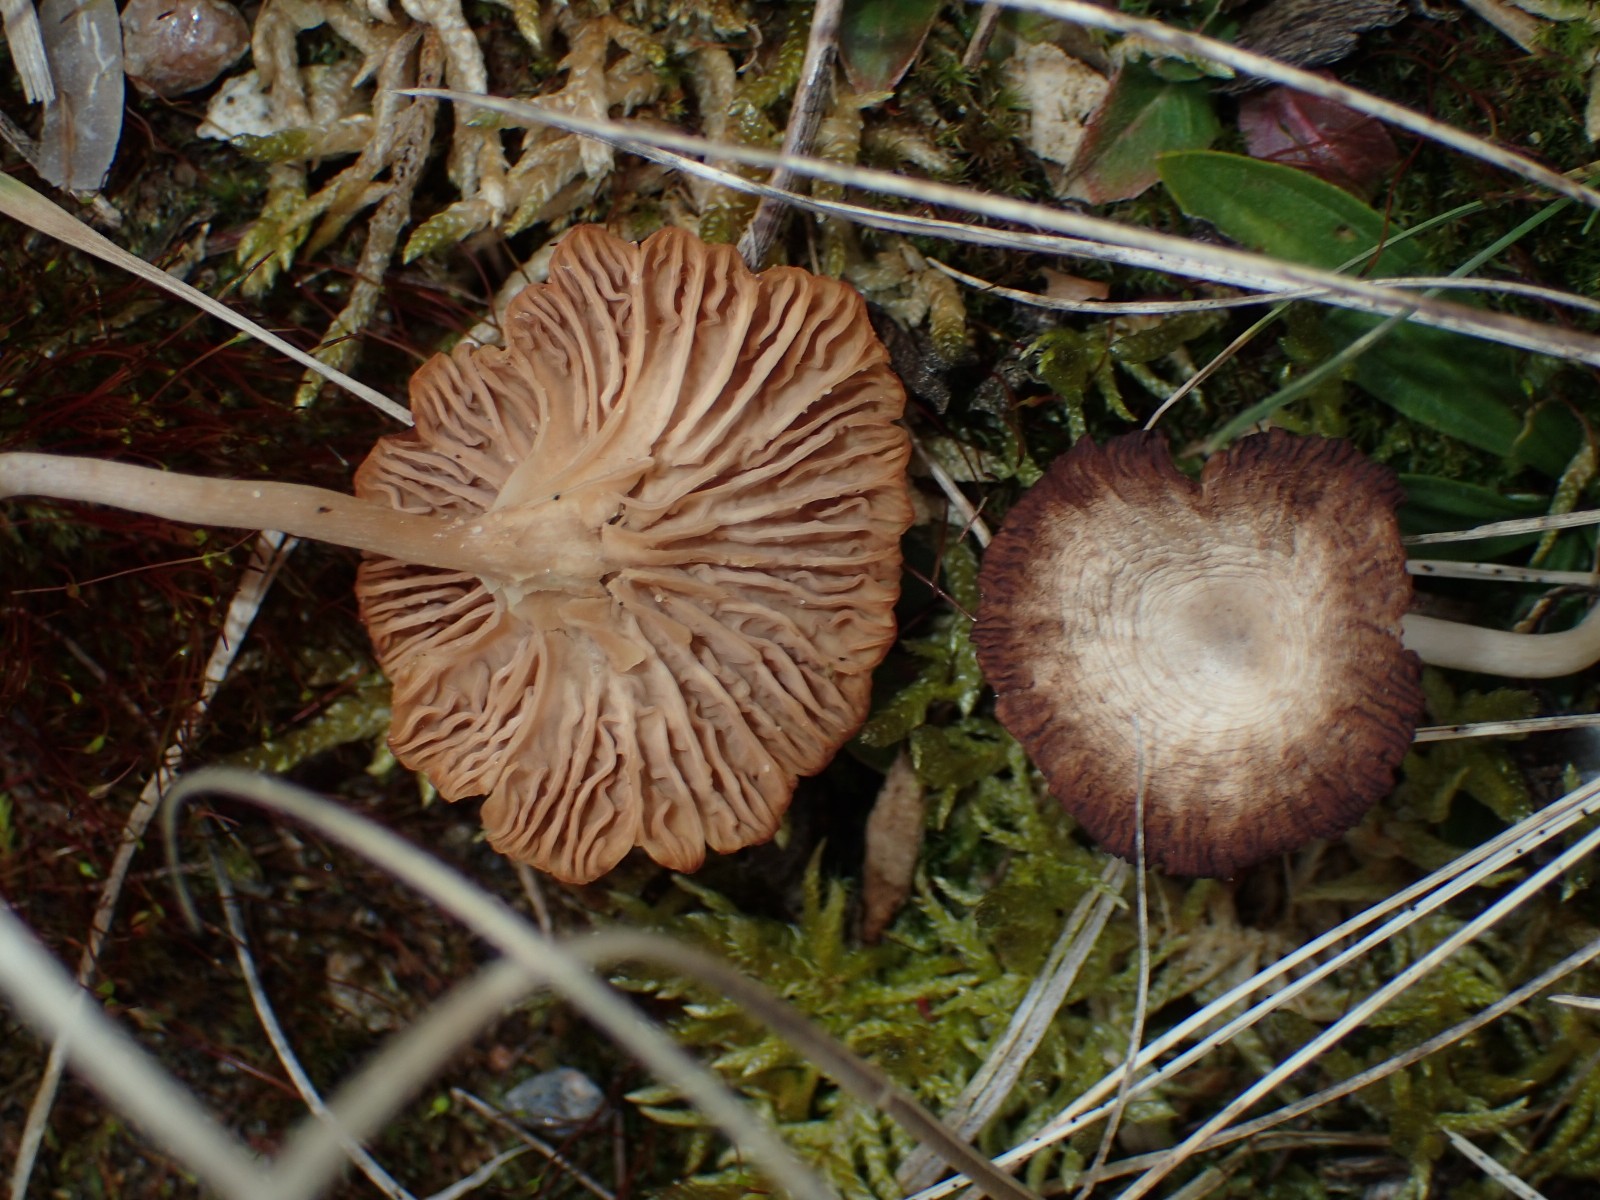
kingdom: Fungi
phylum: Basidiomycota
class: Agaricomycetes
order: Agaricales
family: Hygrophoraceae
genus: Arrhenia
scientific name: Arrhenia peltigerina
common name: skjoldlav-fontænehat
